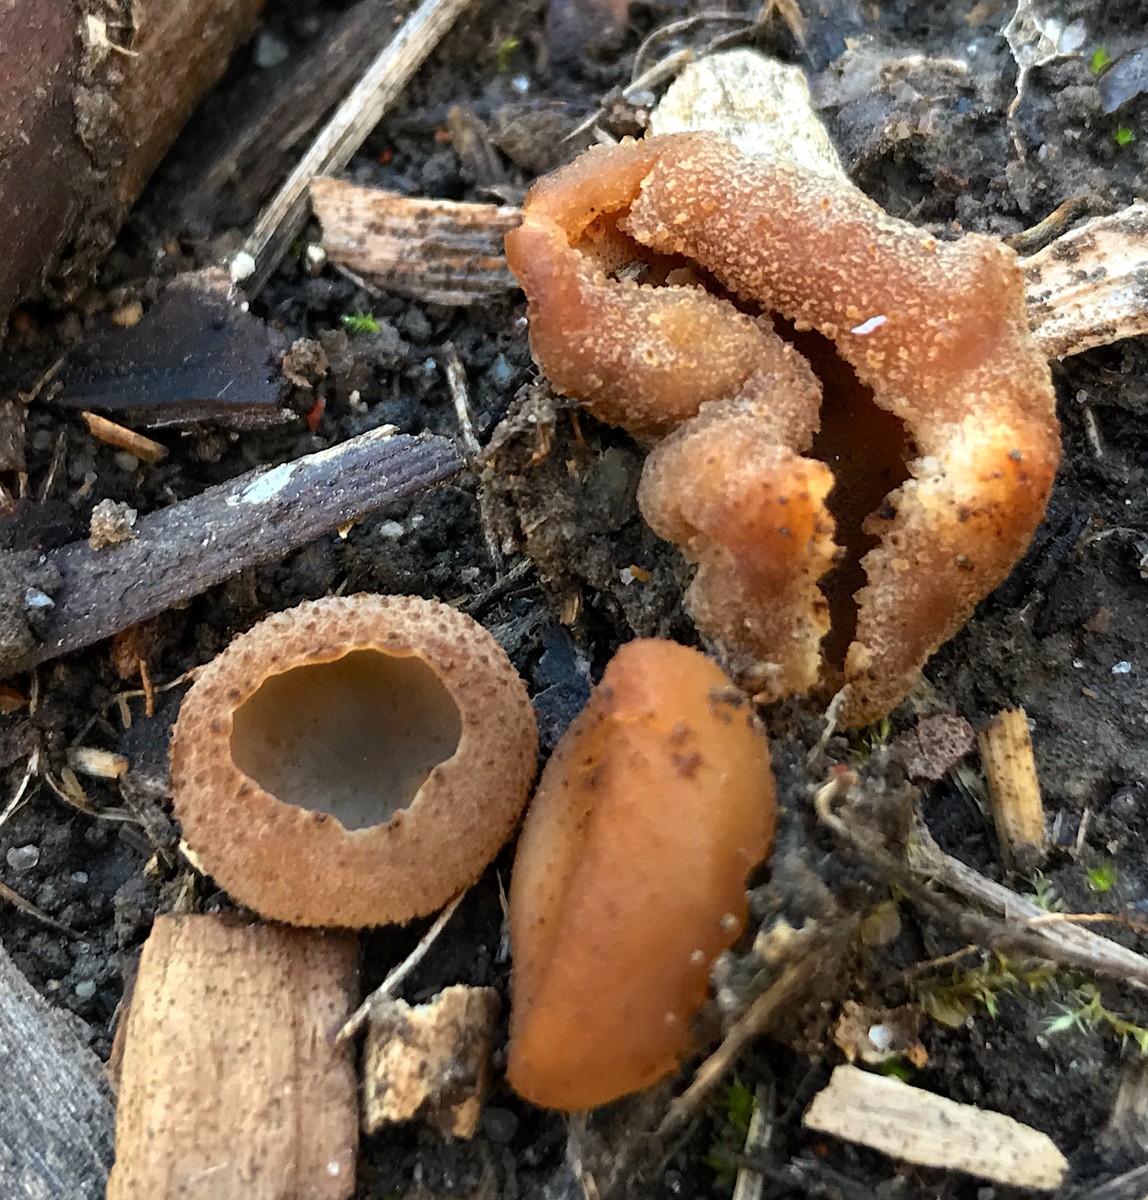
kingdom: Fungi
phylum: Ascomycota
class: Pezizomycetes
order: Pezizales
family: Pezizaceae
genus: Peziza
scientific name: Peziza
